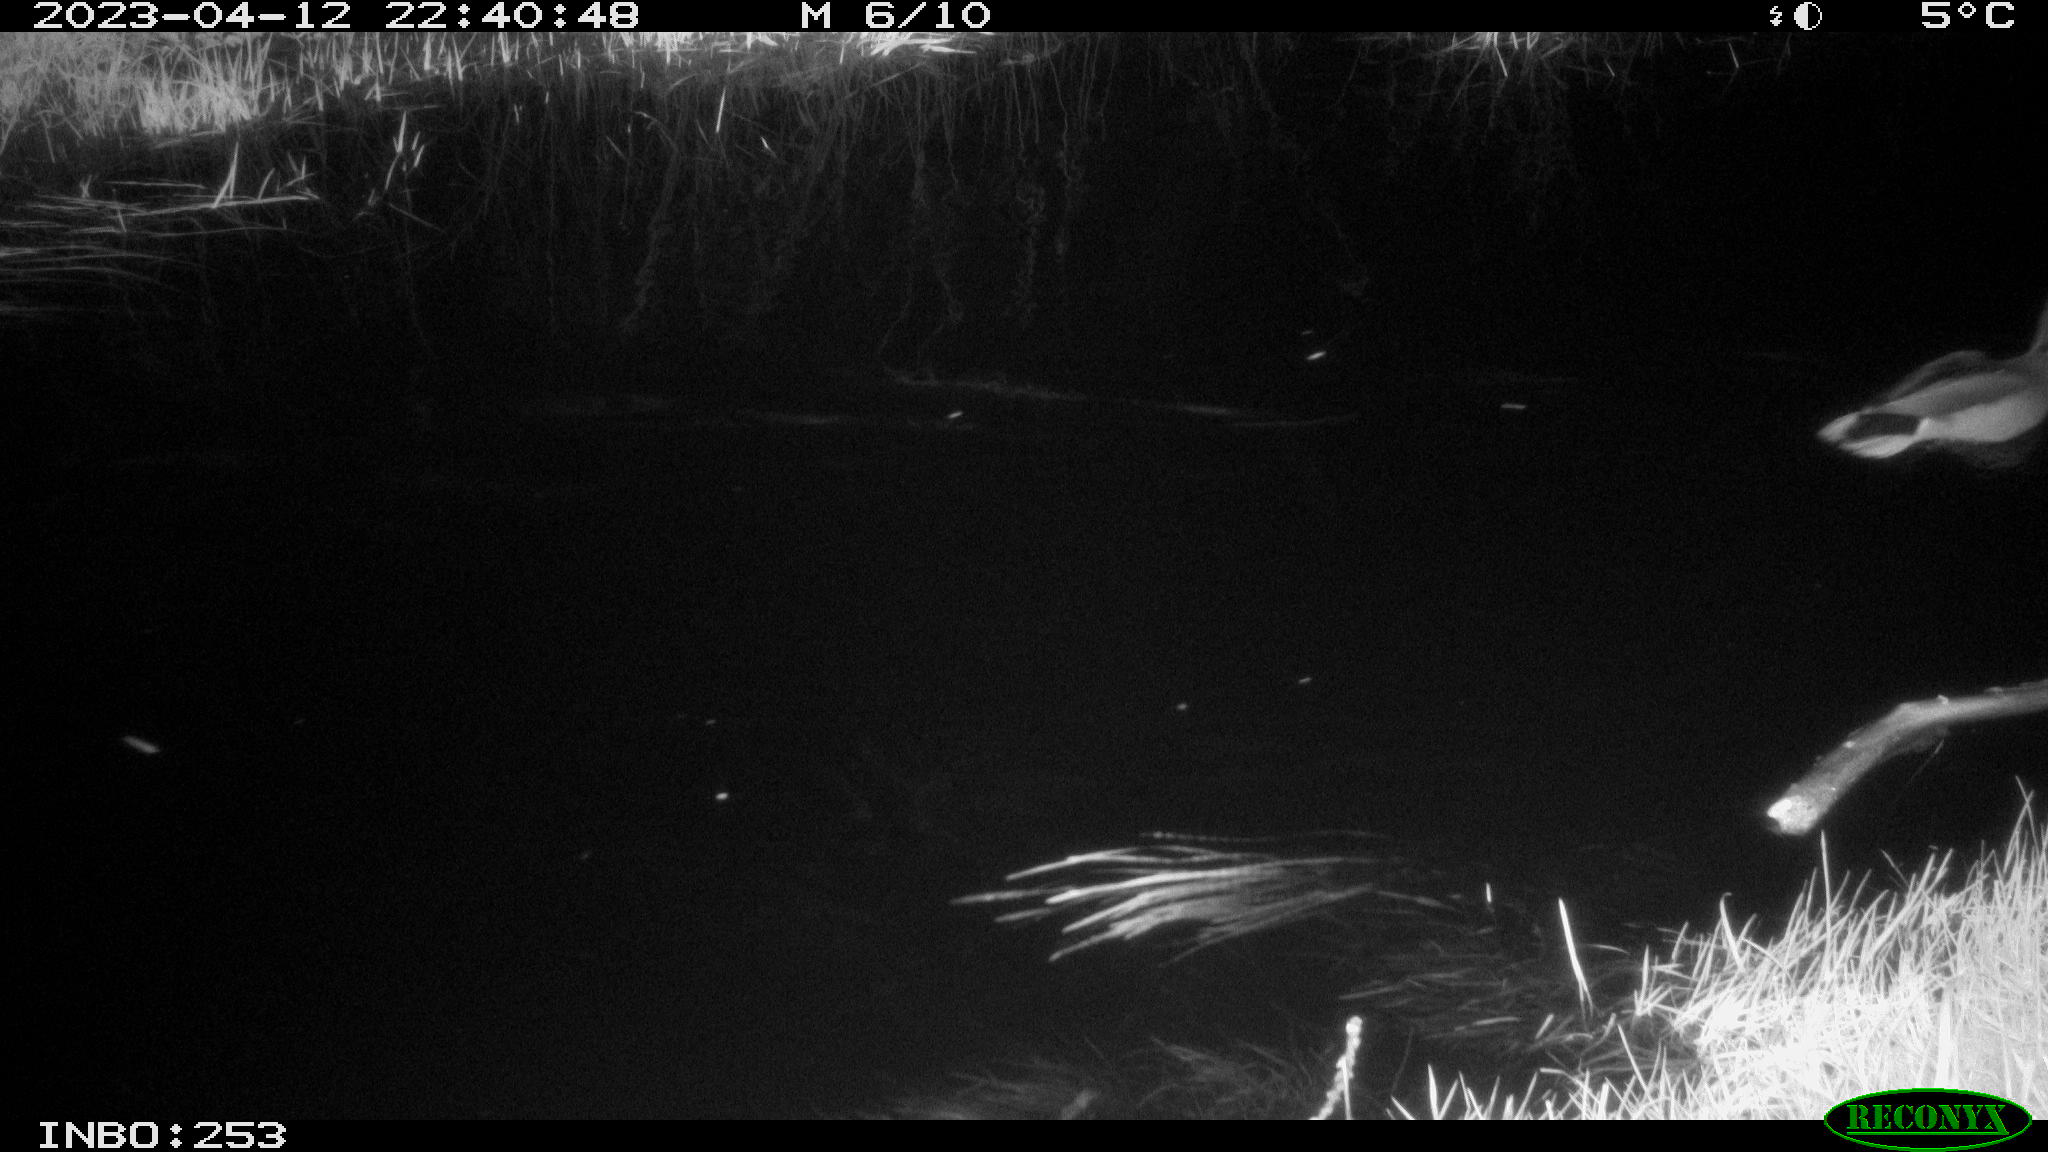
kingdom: Animalia
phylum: Chordata
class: Aves
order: Anseriformes
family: Anatidae
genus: Anas
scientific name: Anas
